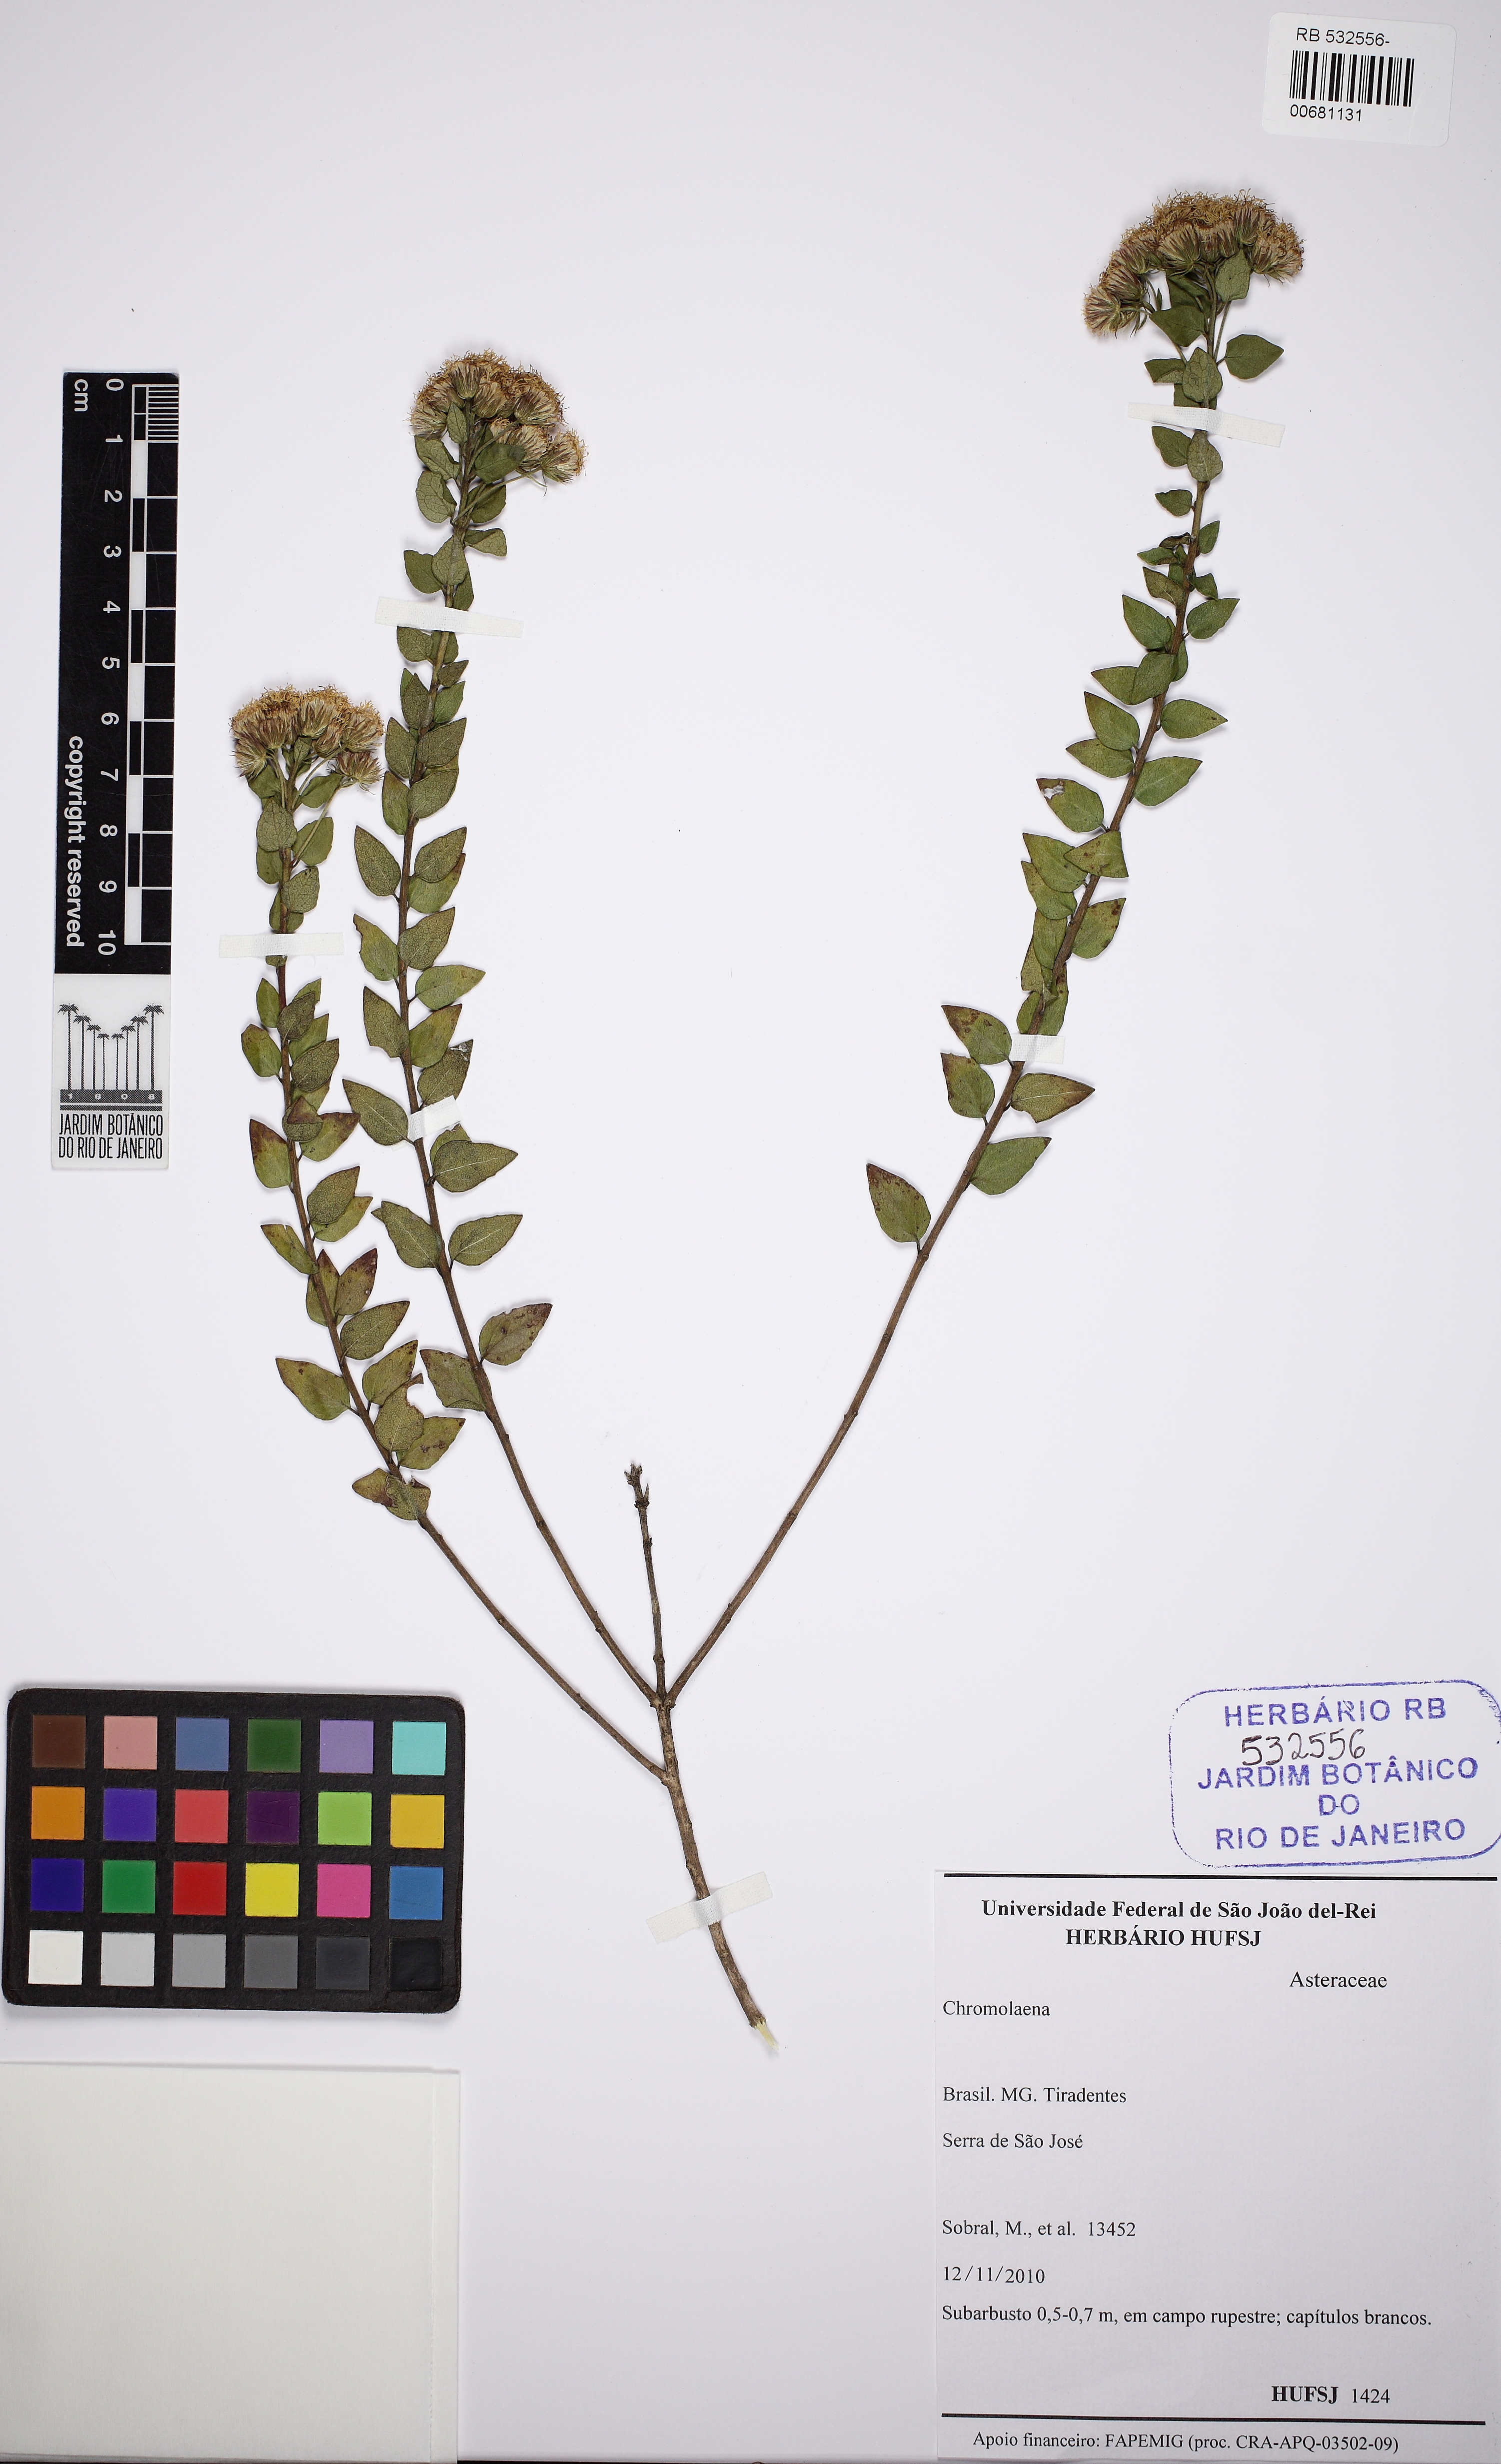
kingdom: Plantae
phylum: Tracheophyta
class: Magnoliopsida
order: Asterales
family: Asteraceae
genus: Chromolaena
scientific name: Chromolaena
